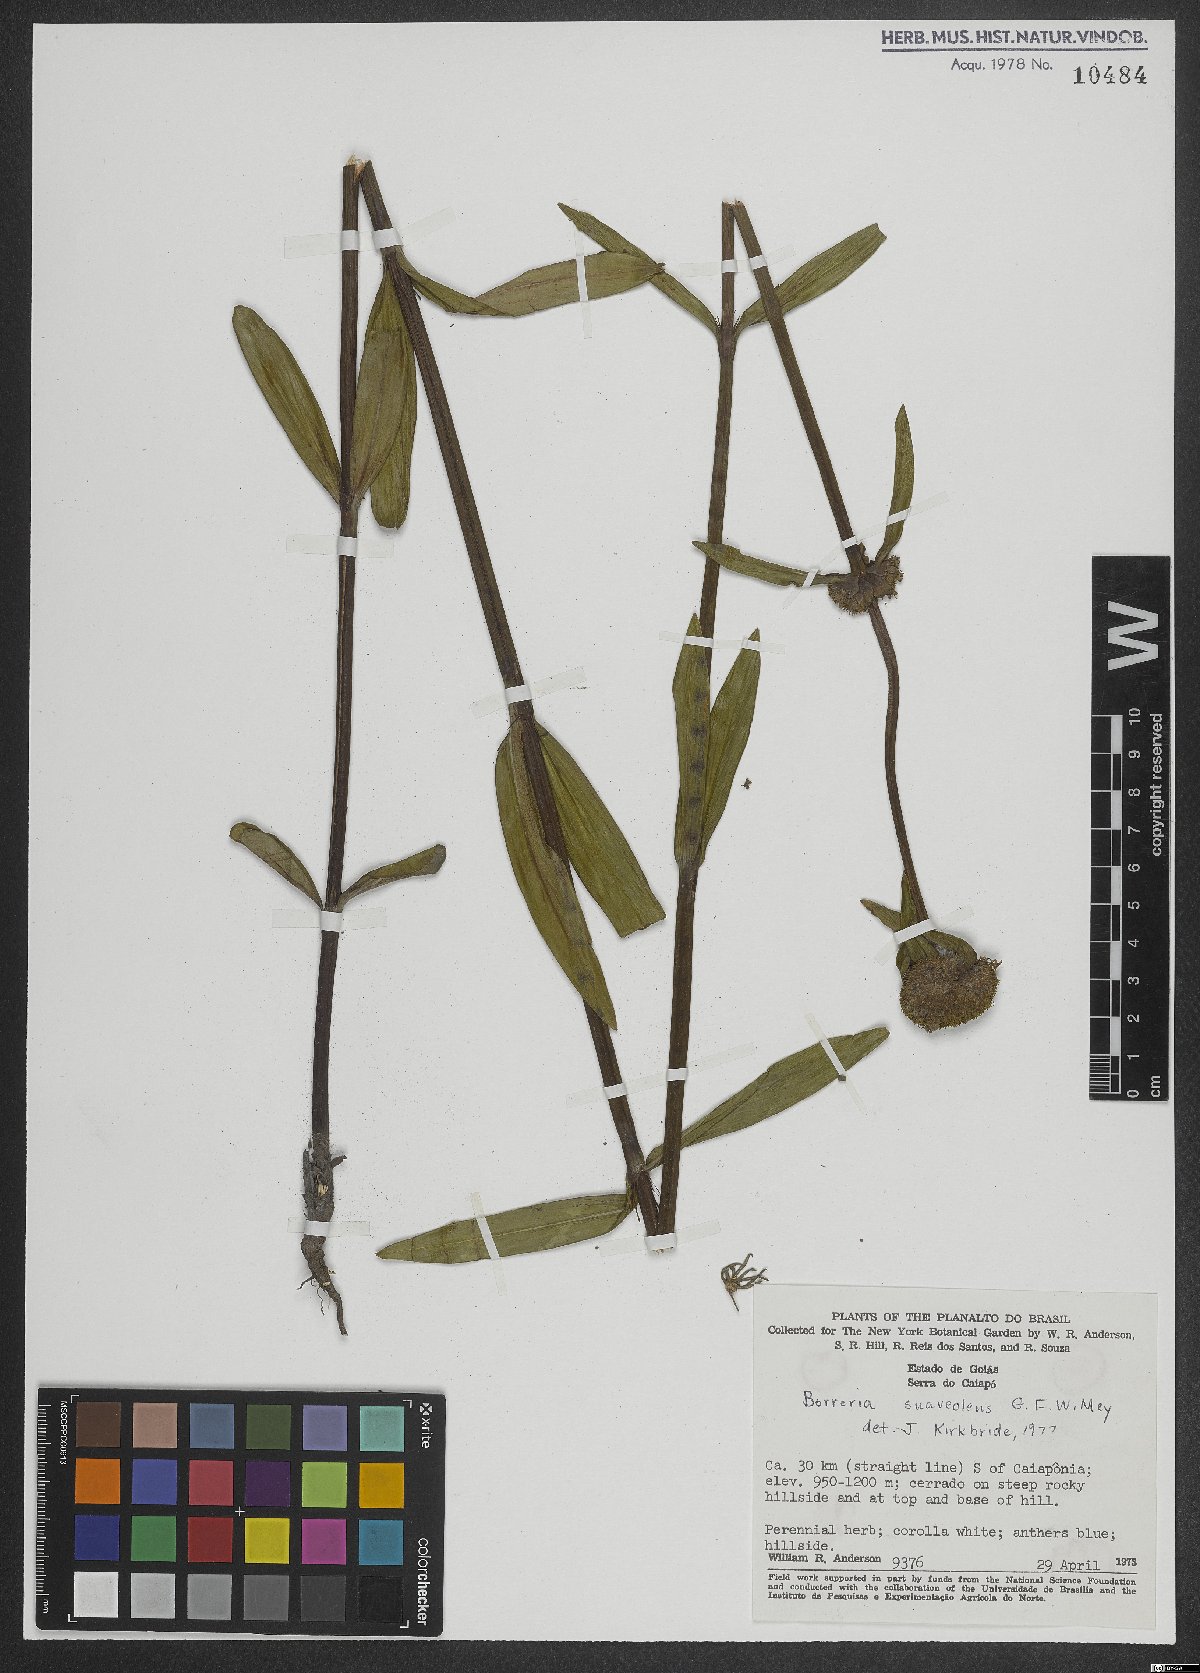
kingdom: Plantae
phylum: Tracheophyta
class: Magnoliopsida
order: Gentianales
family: Rubiaceae
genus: Spermacoce
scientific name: Spermacoce suaveolens
